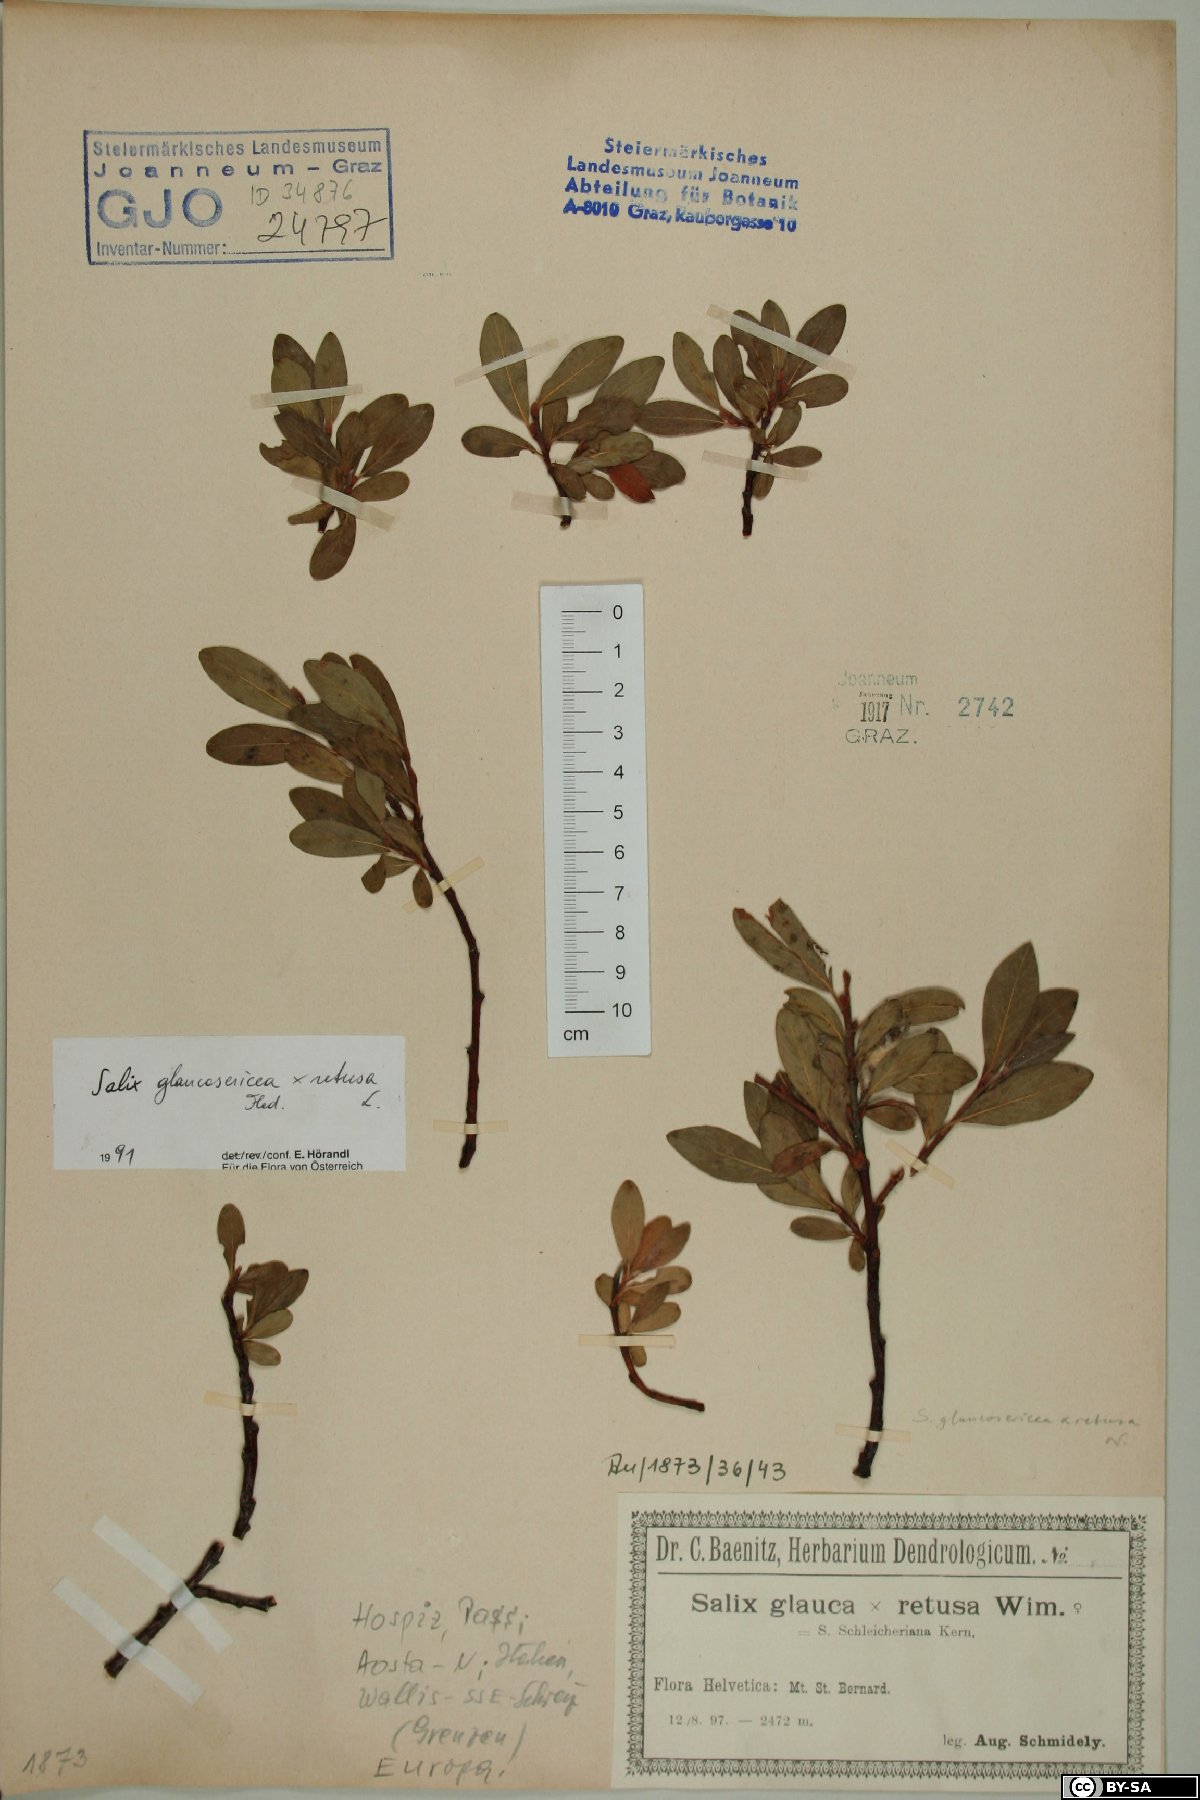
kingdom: Plantae
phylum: Tracheophyta
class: Magnoliopsida
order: Malpighiales
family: Salicaceae
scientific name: Salicaceae
